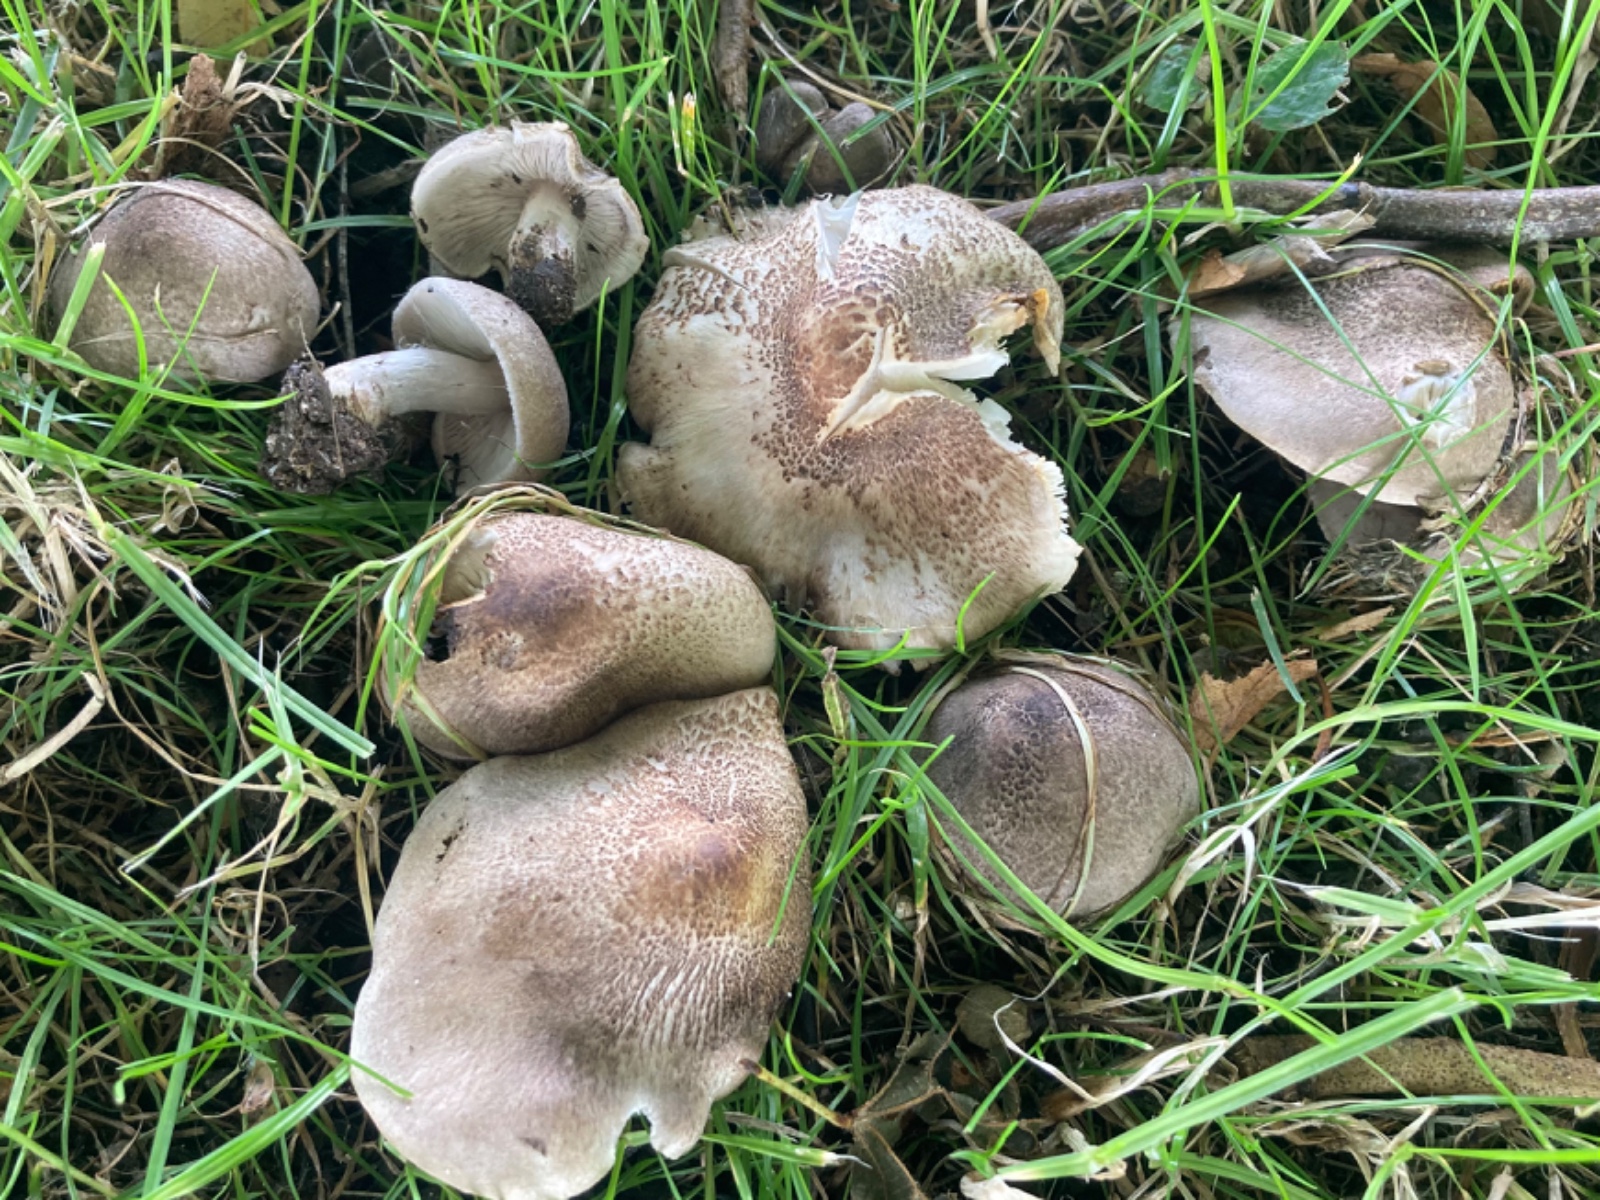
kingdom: Fungi
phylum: Basidiomycota
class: Agaricomycetes
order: Agaricales
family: Tricholomataceae
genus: Tricholoma
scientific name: Tricholoma argyraceum
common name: slør-ridderhat
